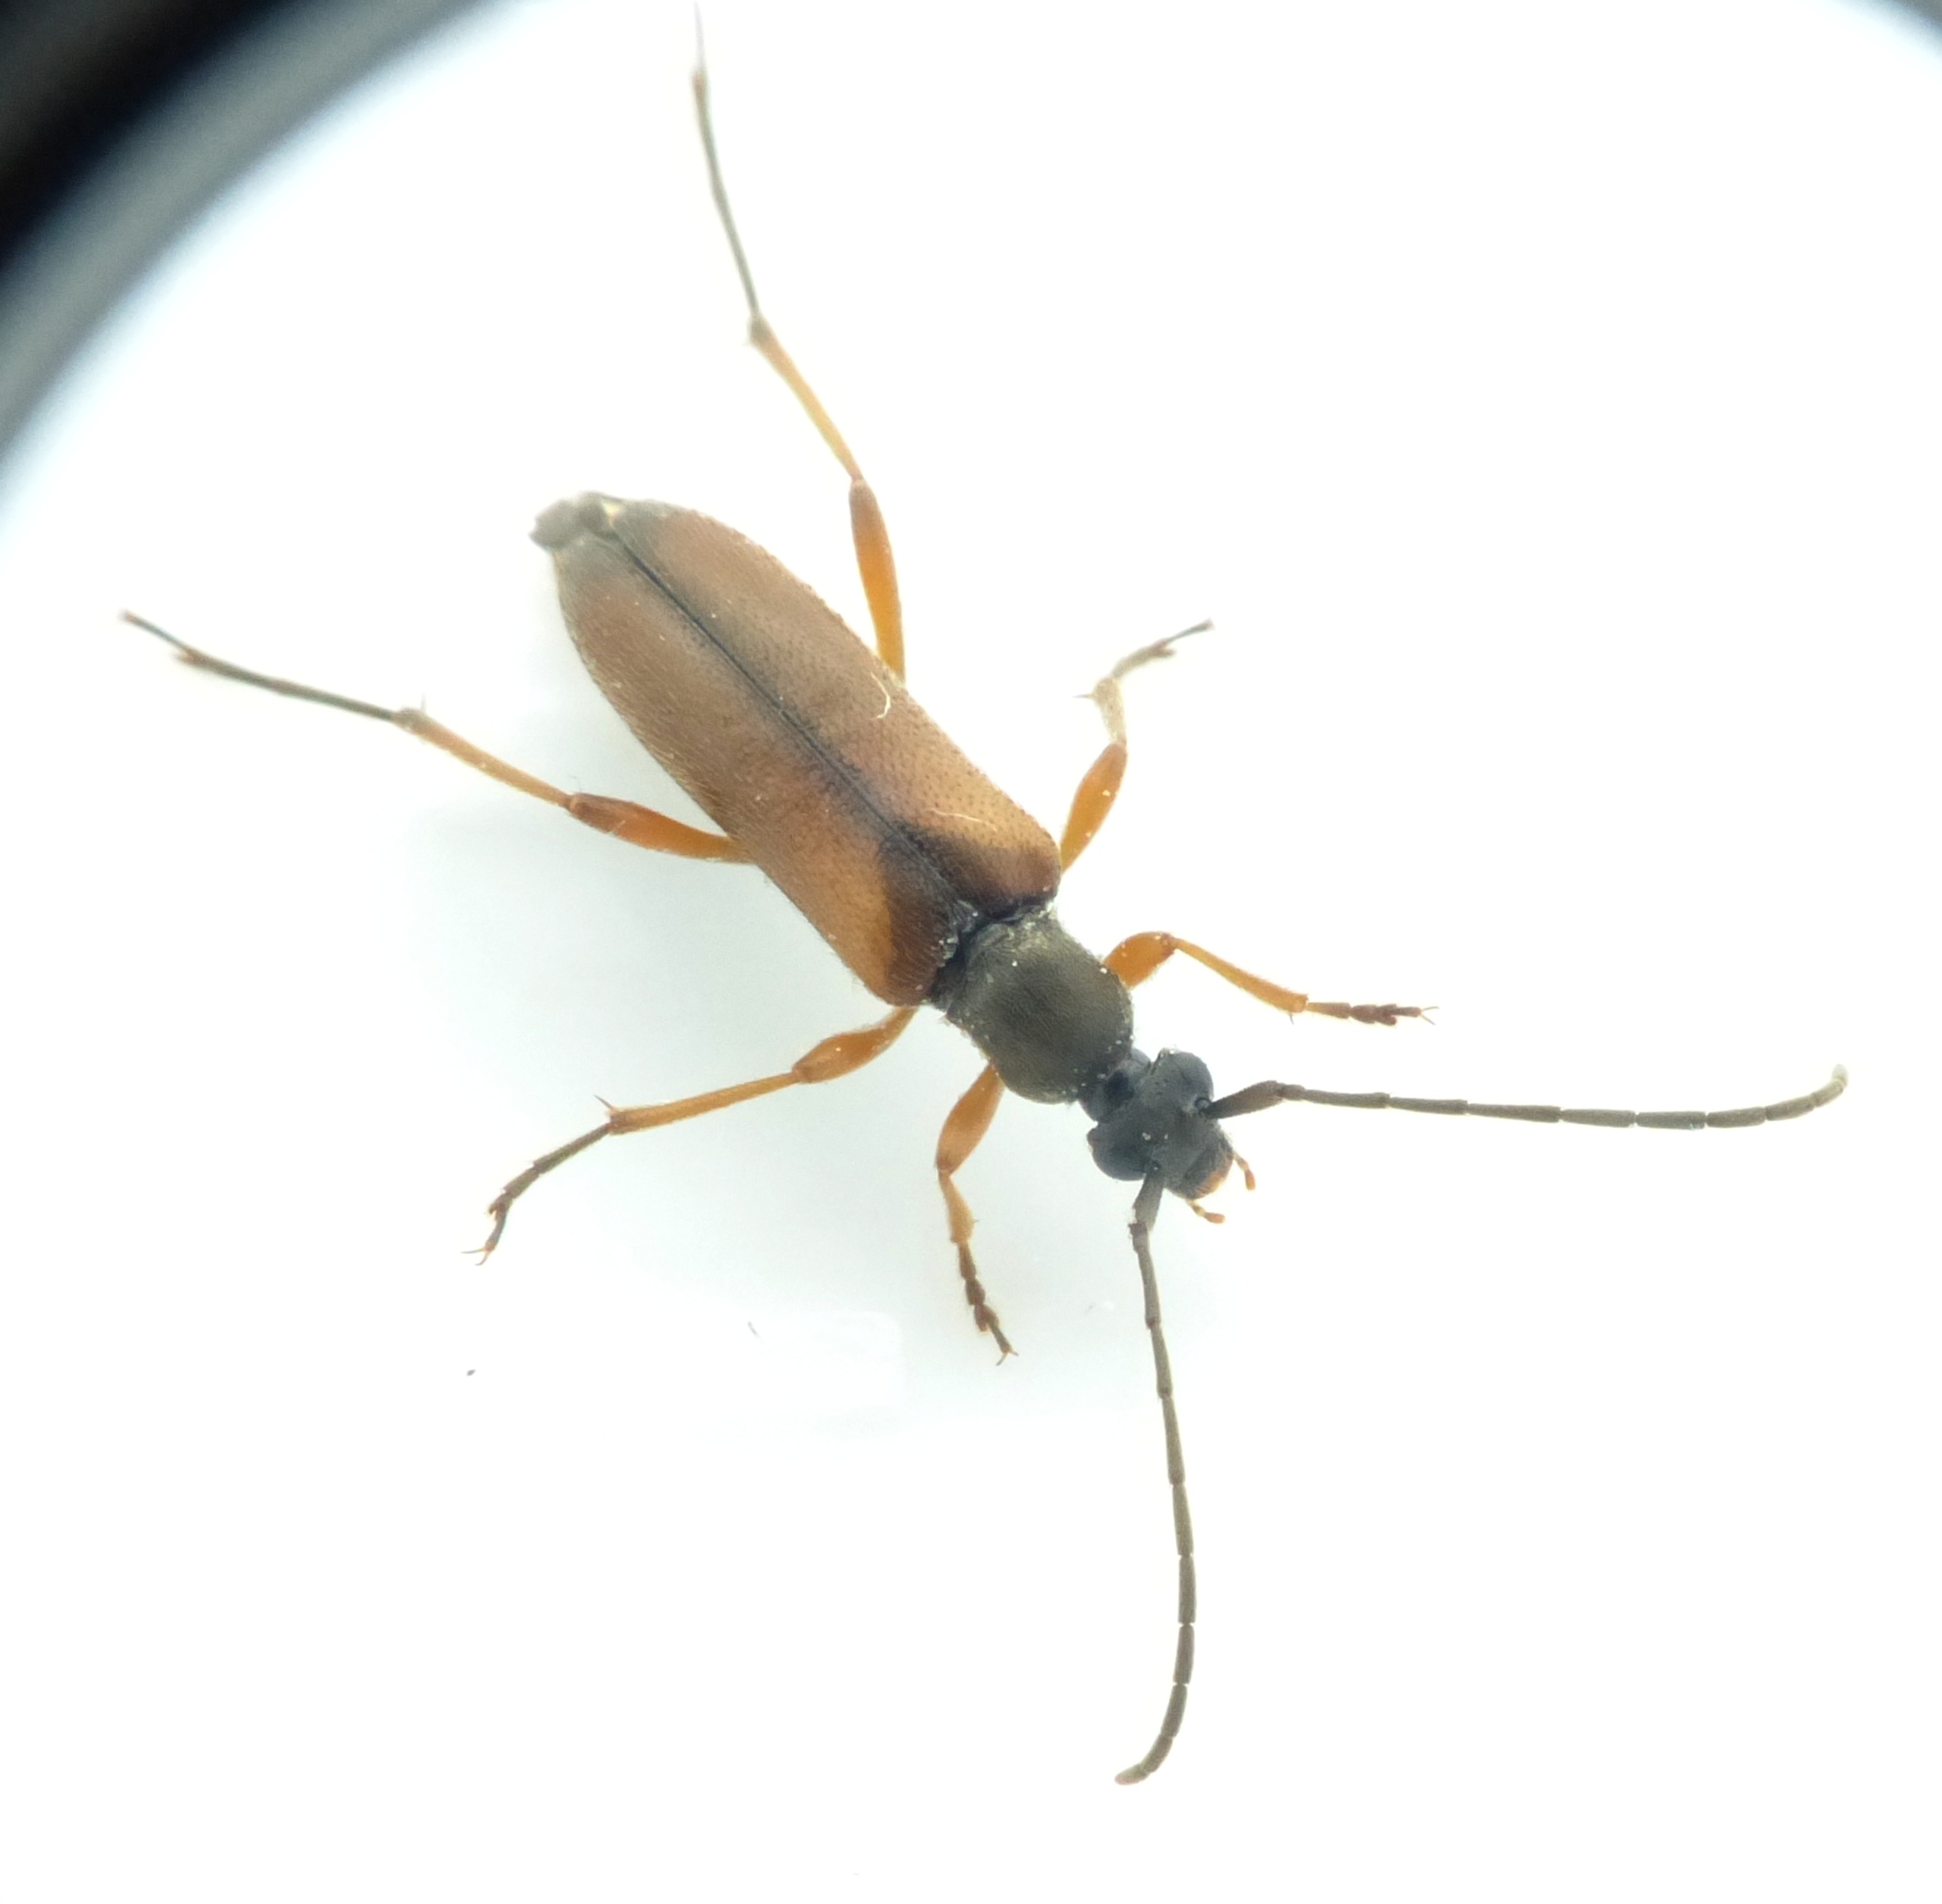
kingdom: Animalia
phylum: Arthropoda
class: Insecta
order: Coleoptera
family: Cerambycidae
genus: Alosterna
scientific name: Alosterna tabacicolor
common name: Tobaksfarvet blomsterbuk
